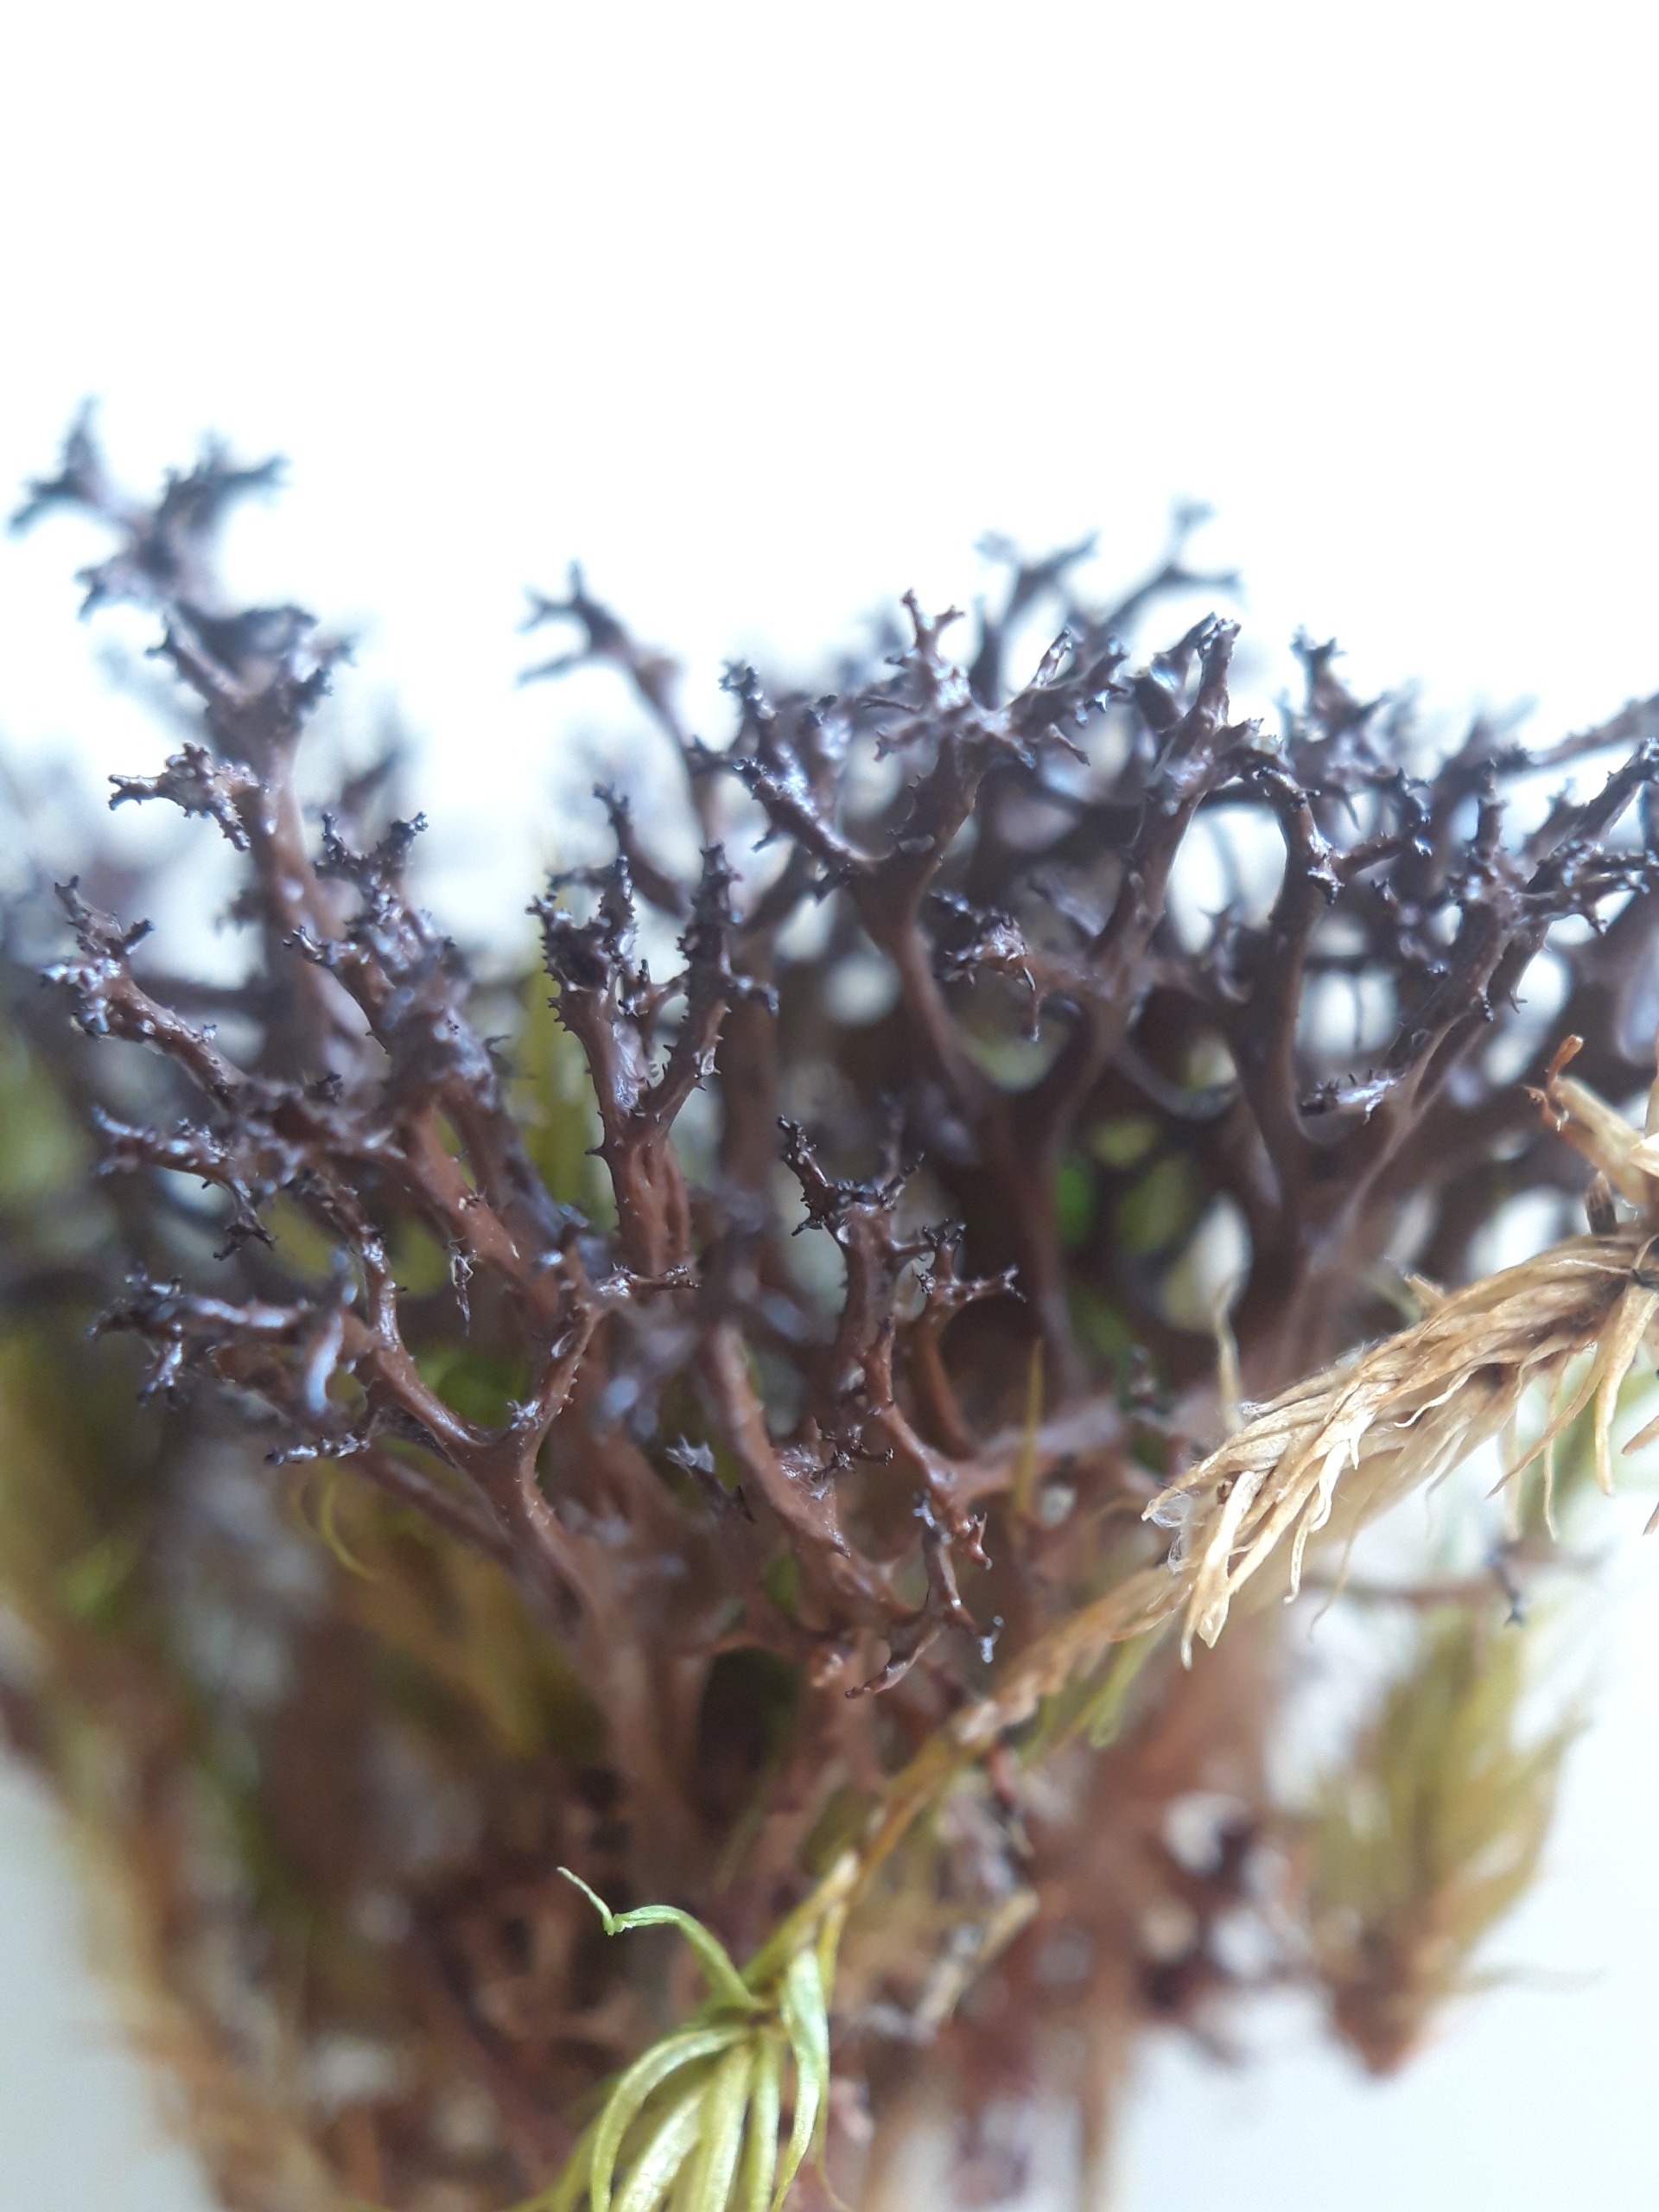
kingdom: Fungi
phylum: Ascomycota
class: Lecanoromycetes
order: Lecanorales
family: Parmeliaceae
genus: Cetraria
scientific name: Cetraria aculeata
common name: Grubet tjørnelav
